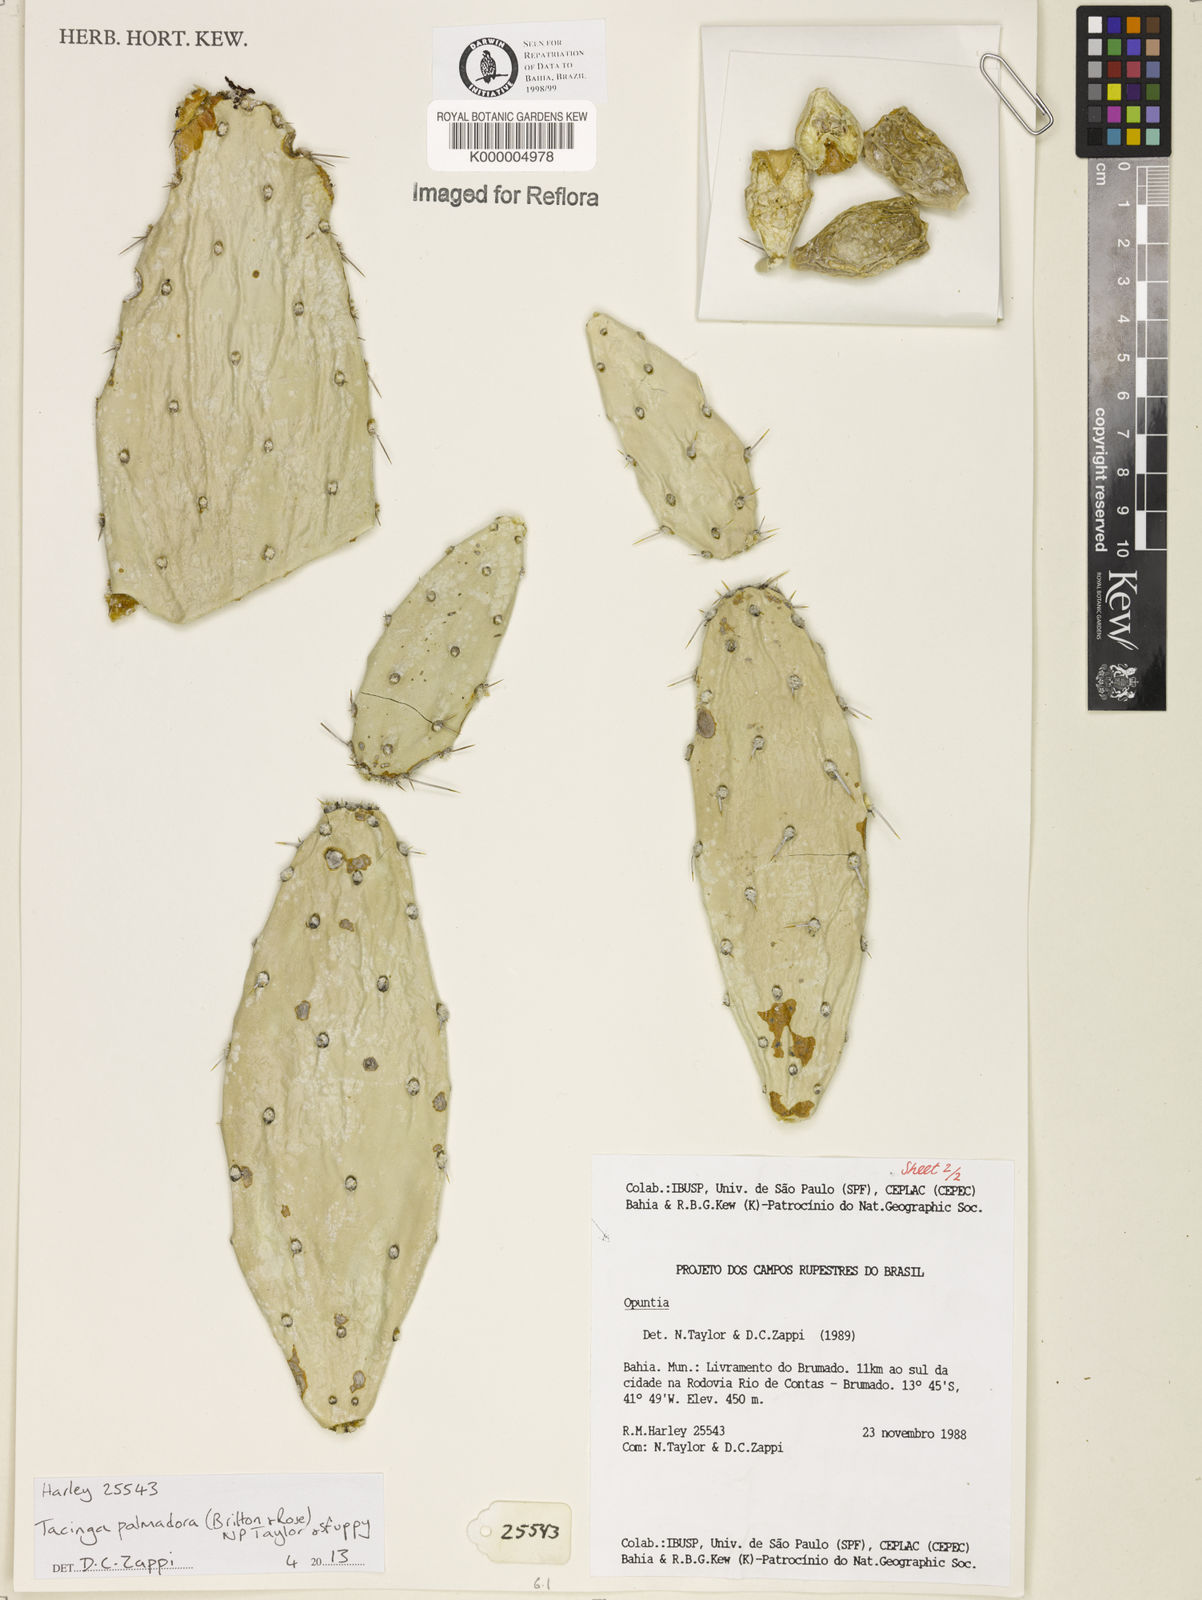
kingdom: Plantae
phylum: Tracheophyta
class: Magnoliopsida
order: Caryophyllales
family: Cactaceae
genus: Tacinga
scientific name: Tacinga palmadora
